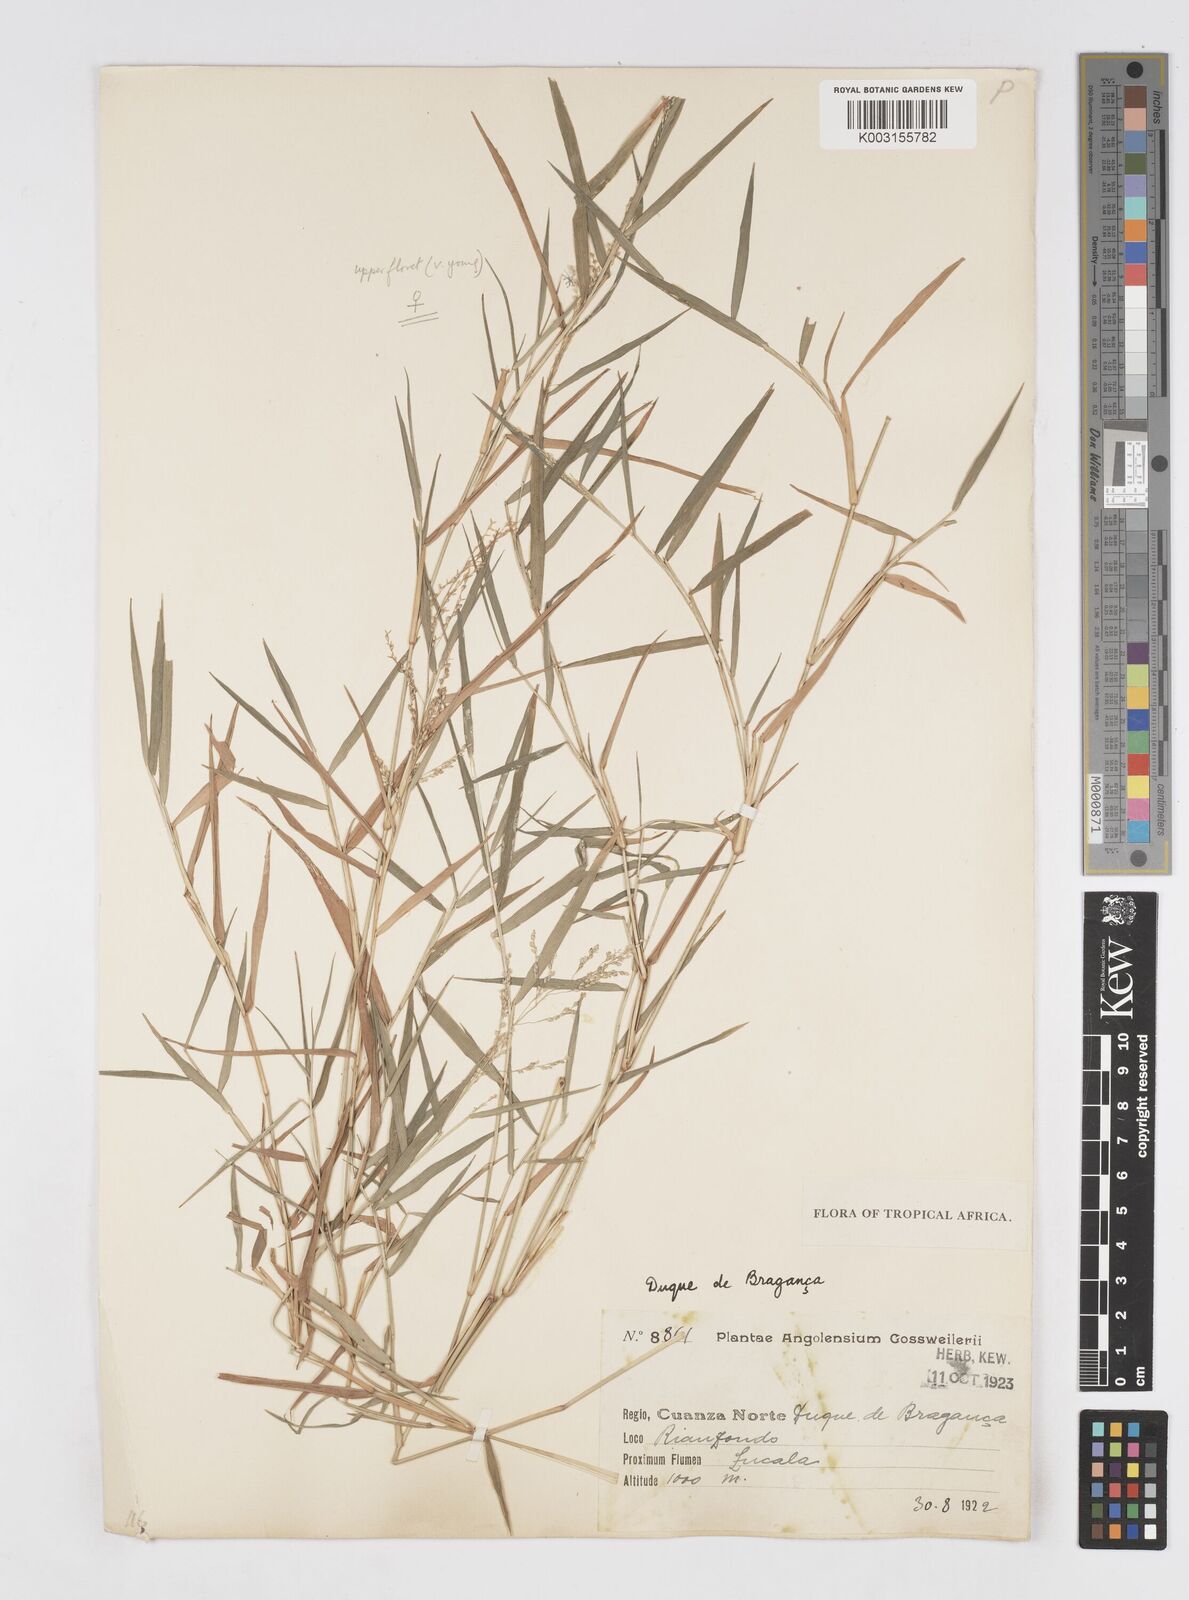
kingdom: Plantae
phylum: Tracheophyta
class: Liliopsida
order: Poales
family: Poaceae
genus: Isachne
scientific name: Isachne angolensis
